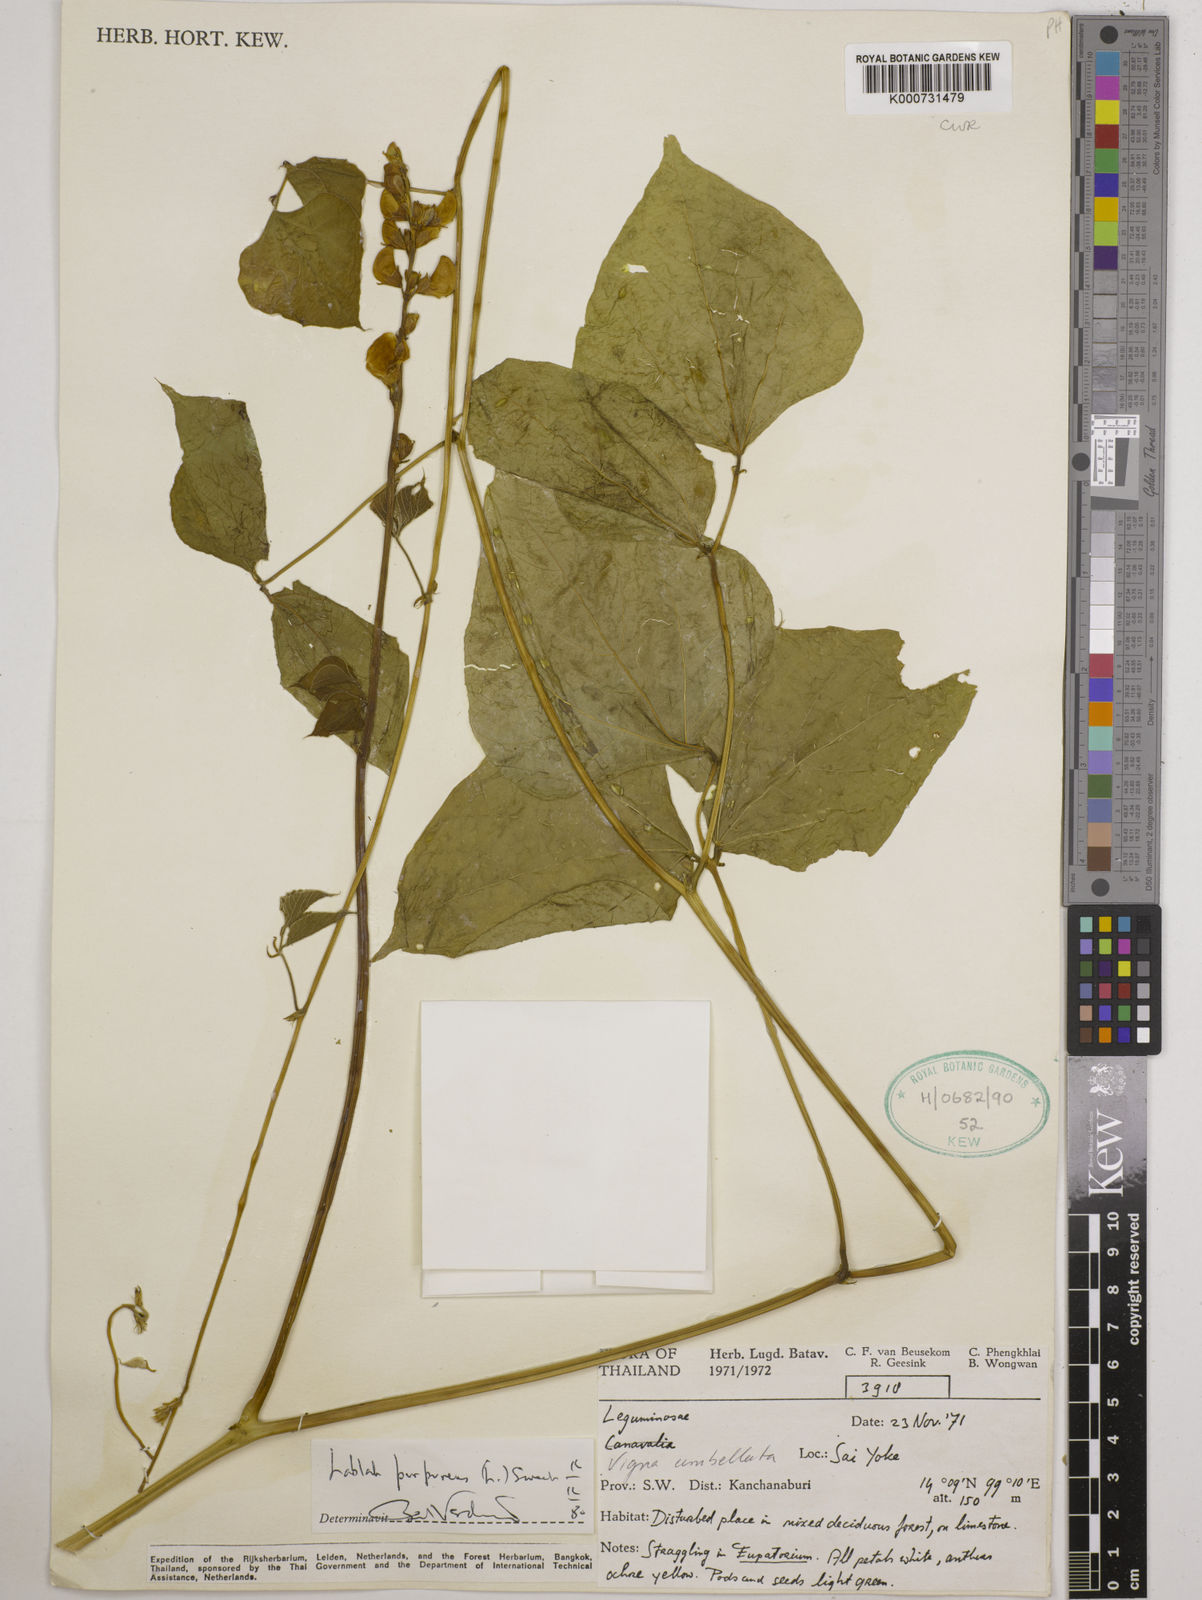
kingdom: Plantae
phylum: Tracheophyta
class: Magnoliopsida
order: Fabales
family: Fabaceae
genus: Lablab
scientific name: Lablab purpureus
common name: Lablab-bean
